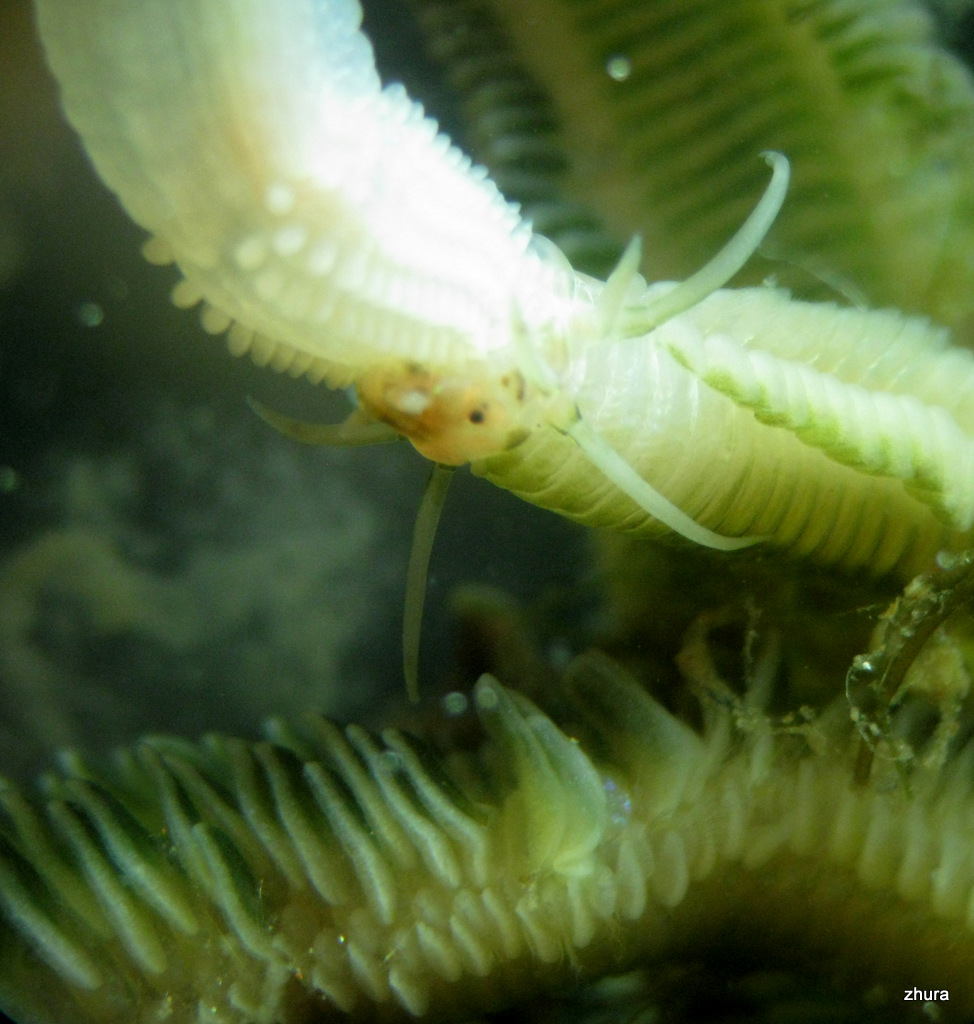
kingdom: Animalia
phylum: Annelida
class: Polychaeta
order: Phyllodocida
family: Phyllodocidae
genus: Phyllodoce
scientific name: Phyllodoce
